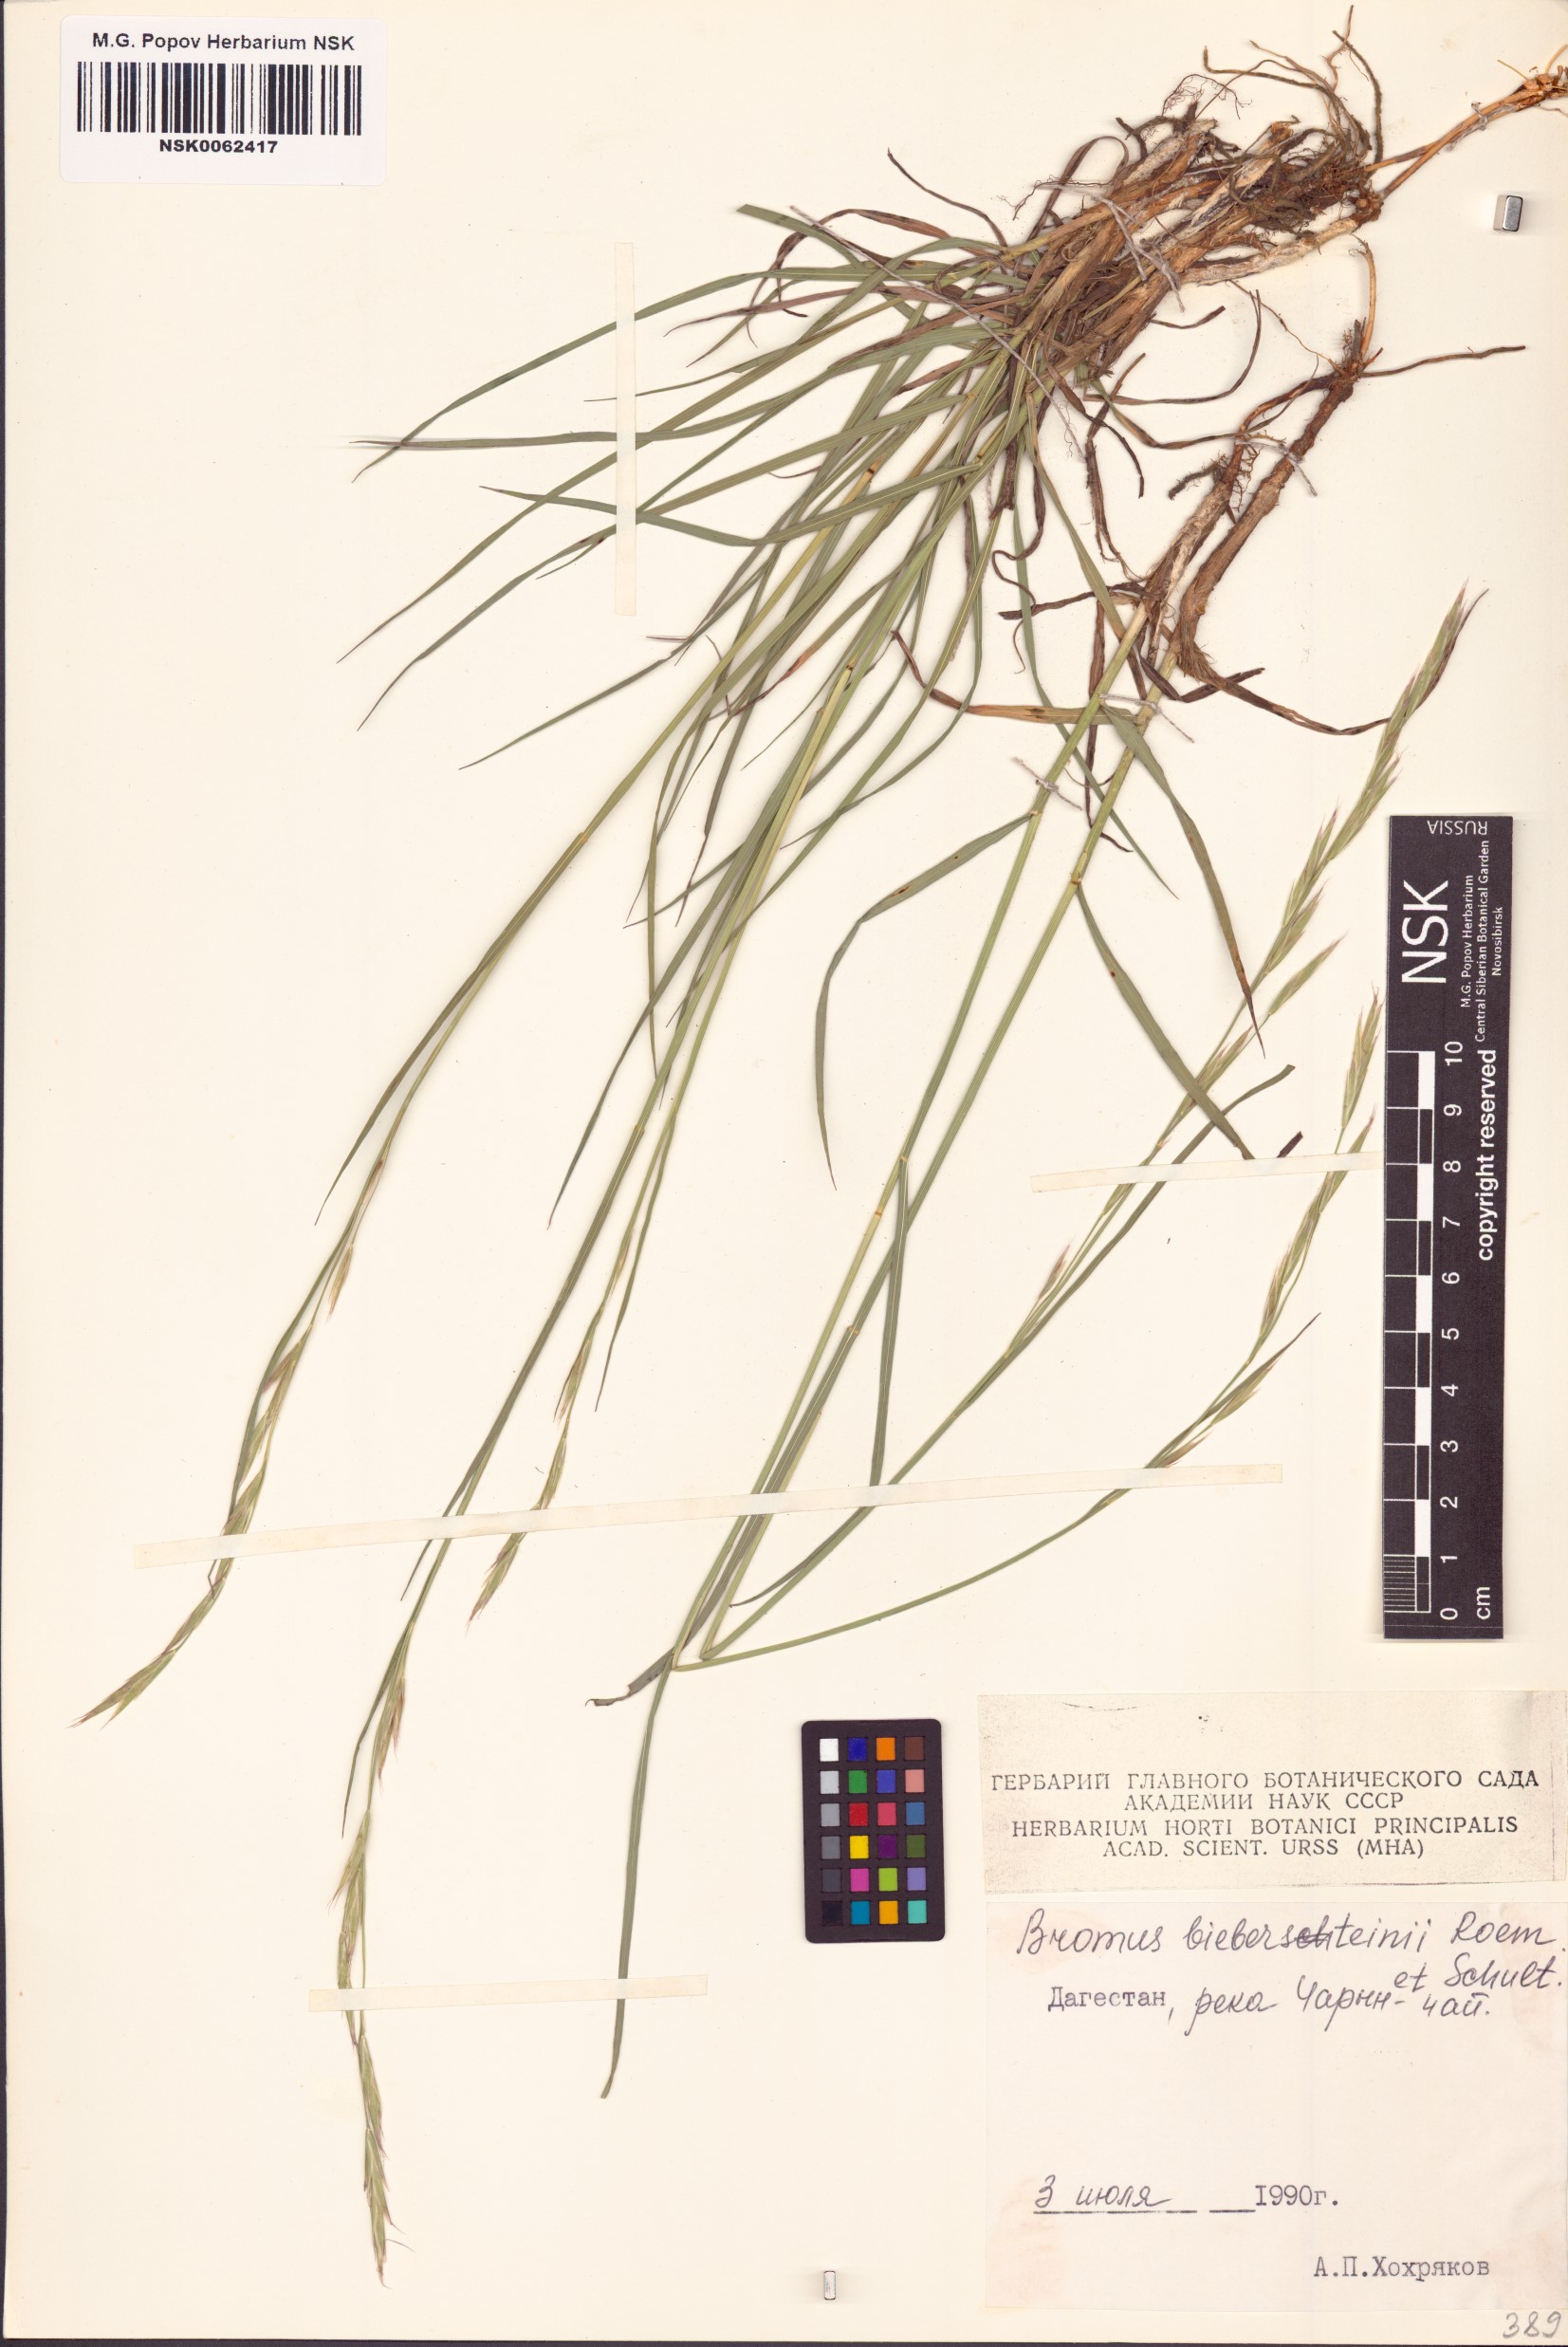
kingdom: Plantae
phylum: Tracheophyta
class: Liliopsida
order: Poales
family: Poaceae
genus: Bromus
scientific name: Bromus biebersteinii
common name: Bieberstein brome
